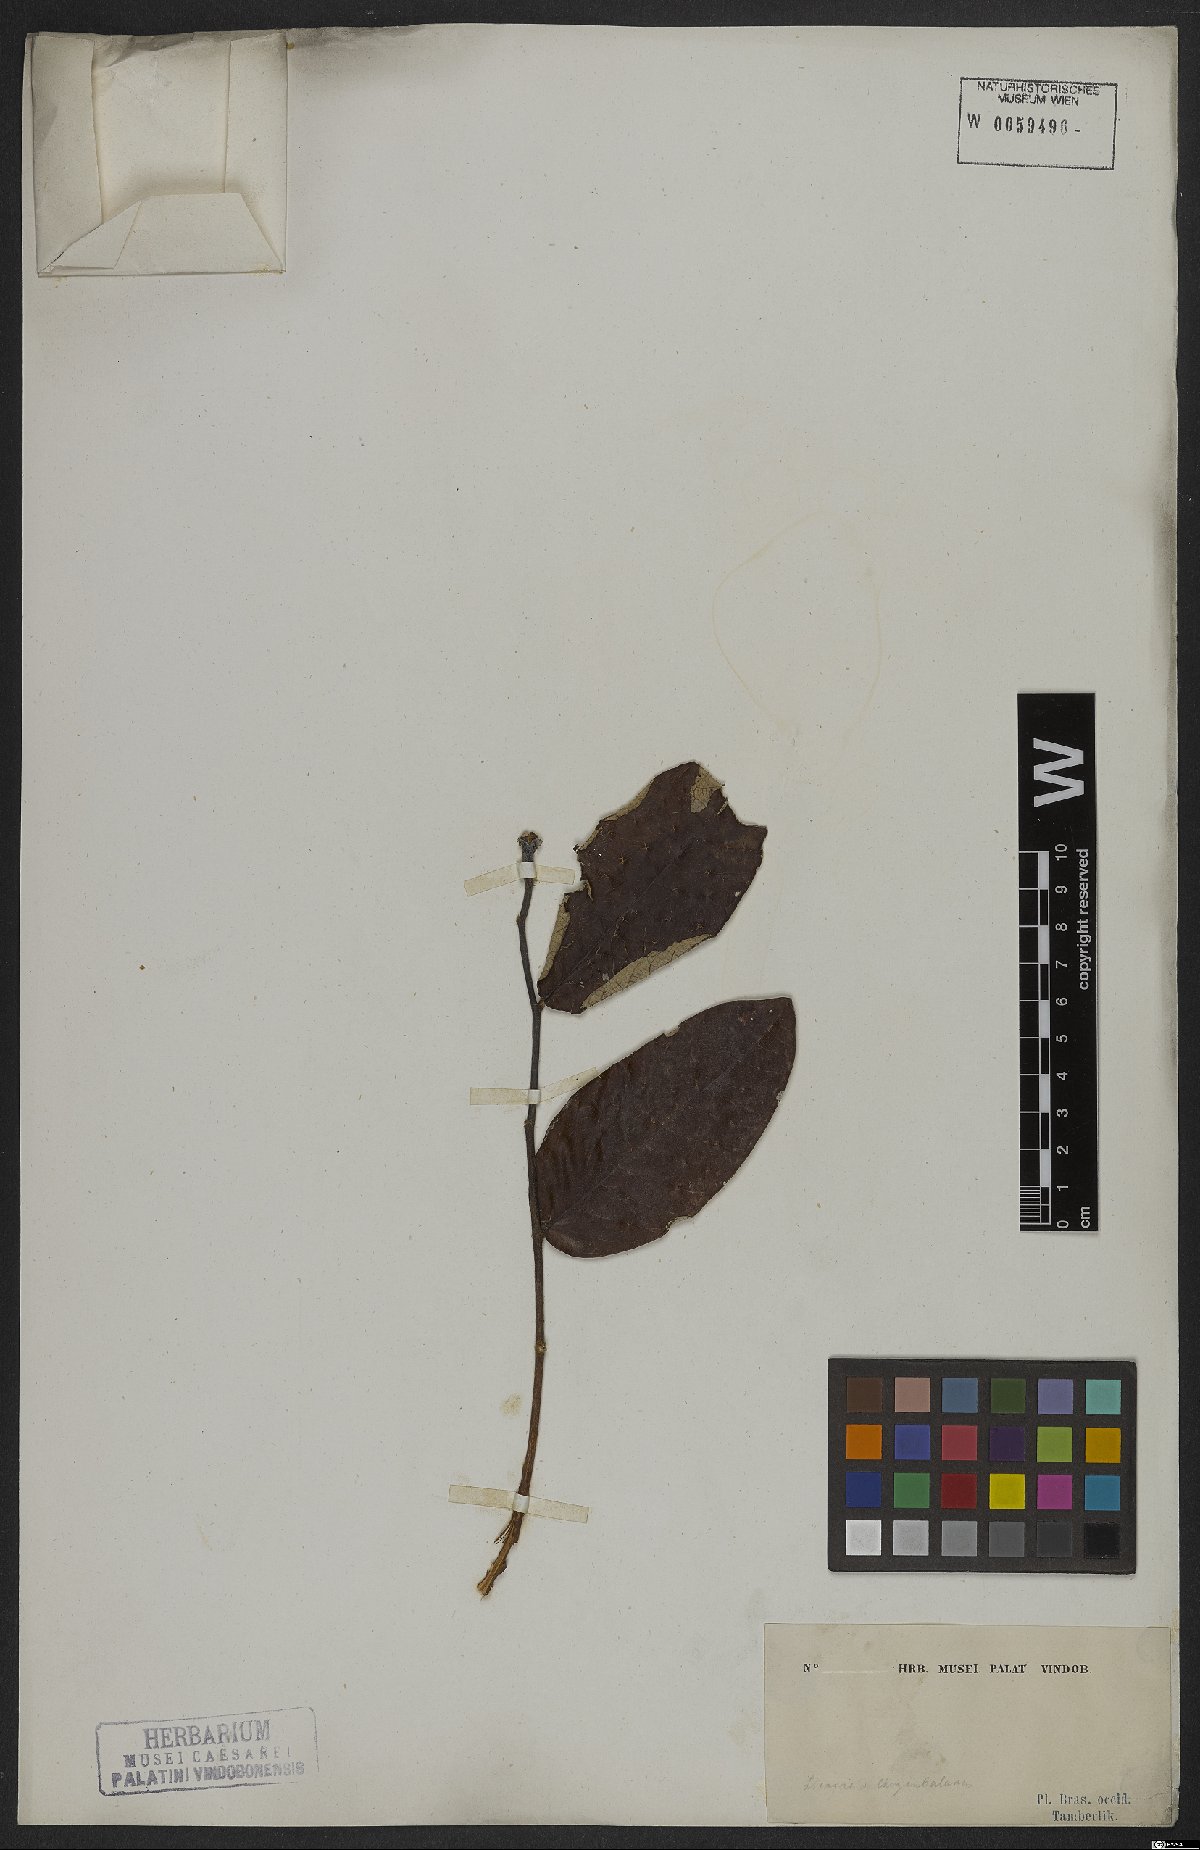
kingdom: Plantae
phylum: Tracheophyta
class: Magnoliopsida
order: Malpighiales
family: Chrysobalanaceae
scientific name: Chrysobalanaceae
